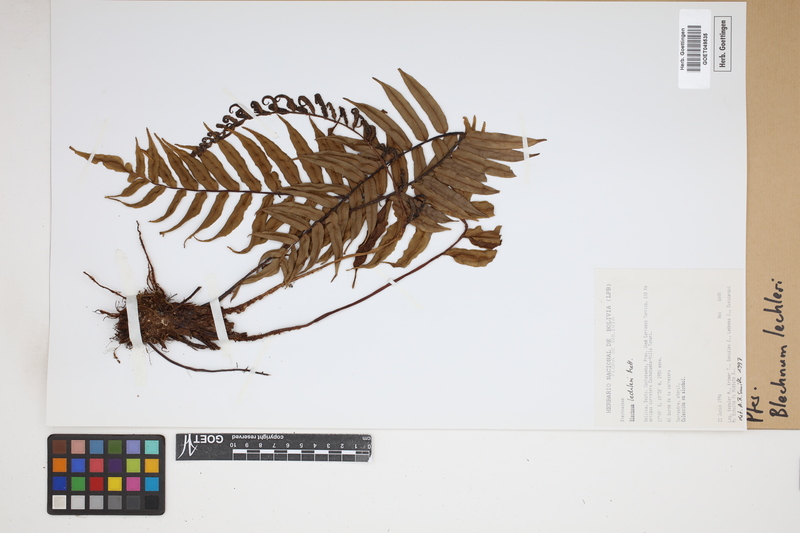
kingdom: Plantae
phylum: Tracheophyta
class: Polypodiopsida
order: Polypodiales
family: Blechnaceae
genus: Parablechnum
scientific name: Parablechnum lechleri
